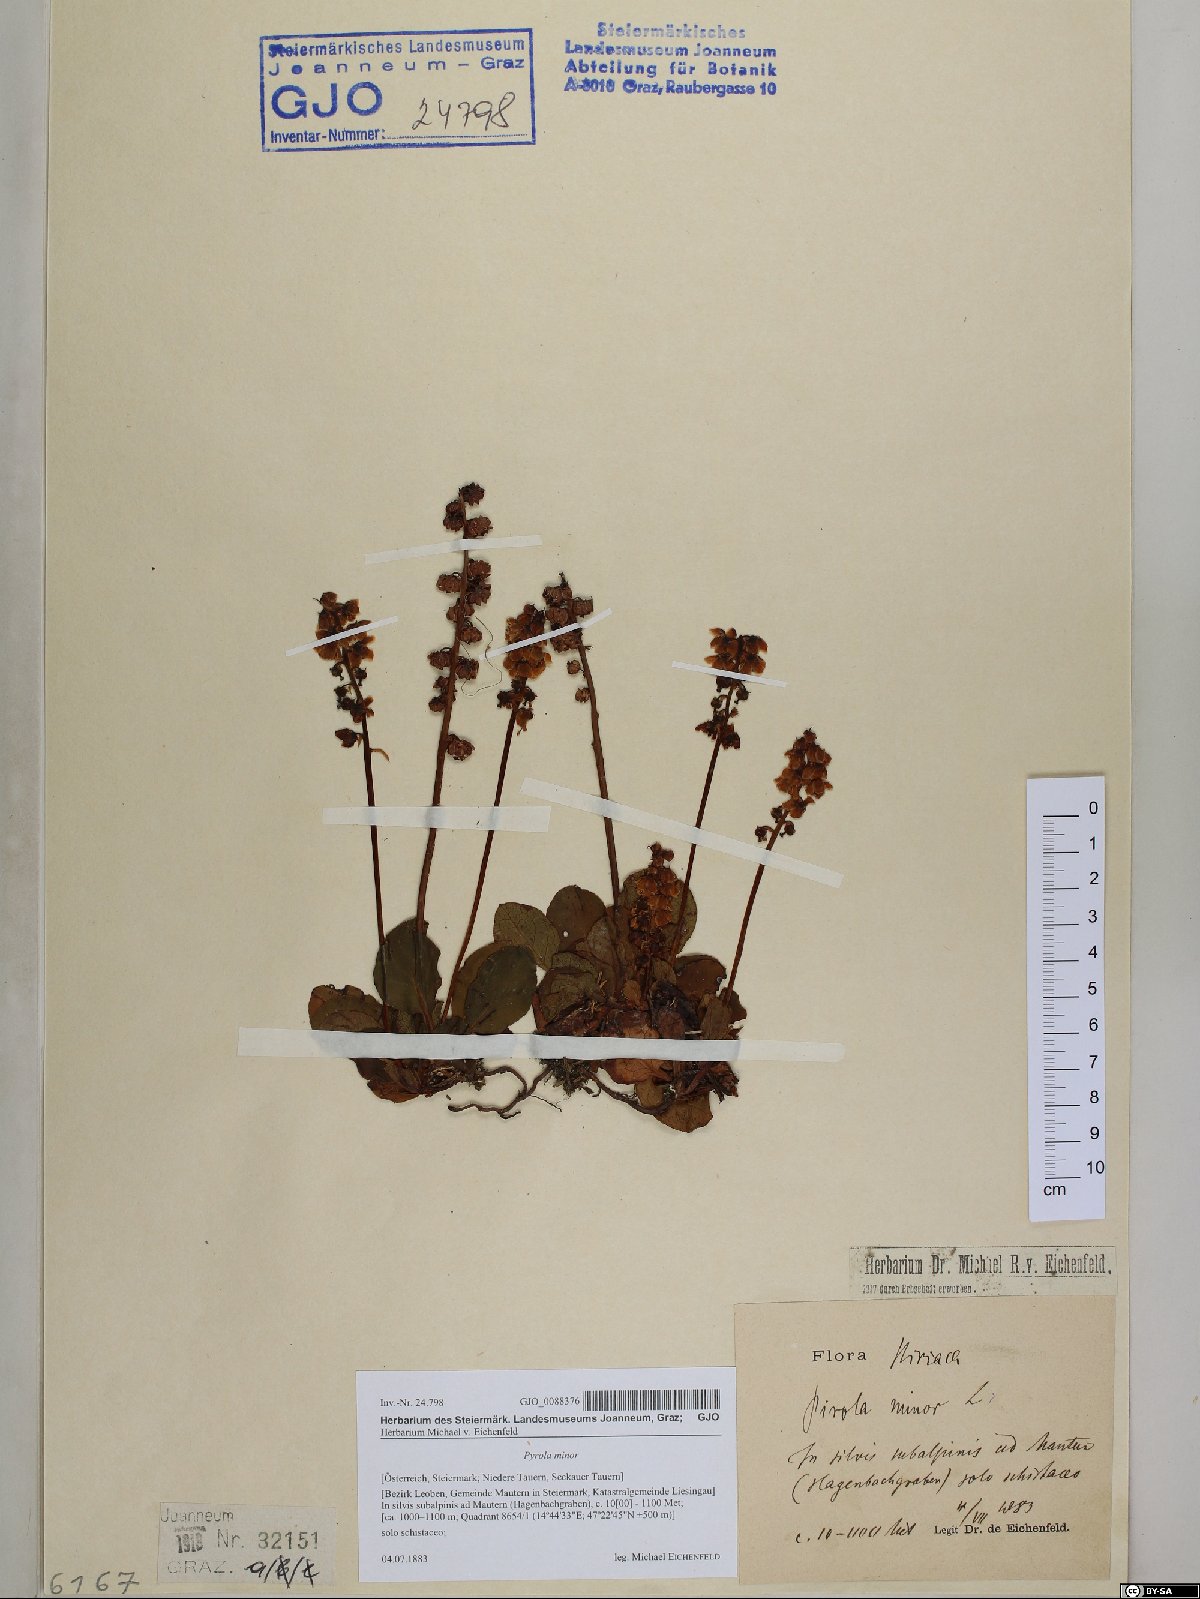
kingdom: Plantae
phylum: Tracheophyta
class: Magnoliopsida
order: Ericales
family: Ericaceae
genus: Pyrola
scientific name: Pyrola minor
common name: Common wintergreen
